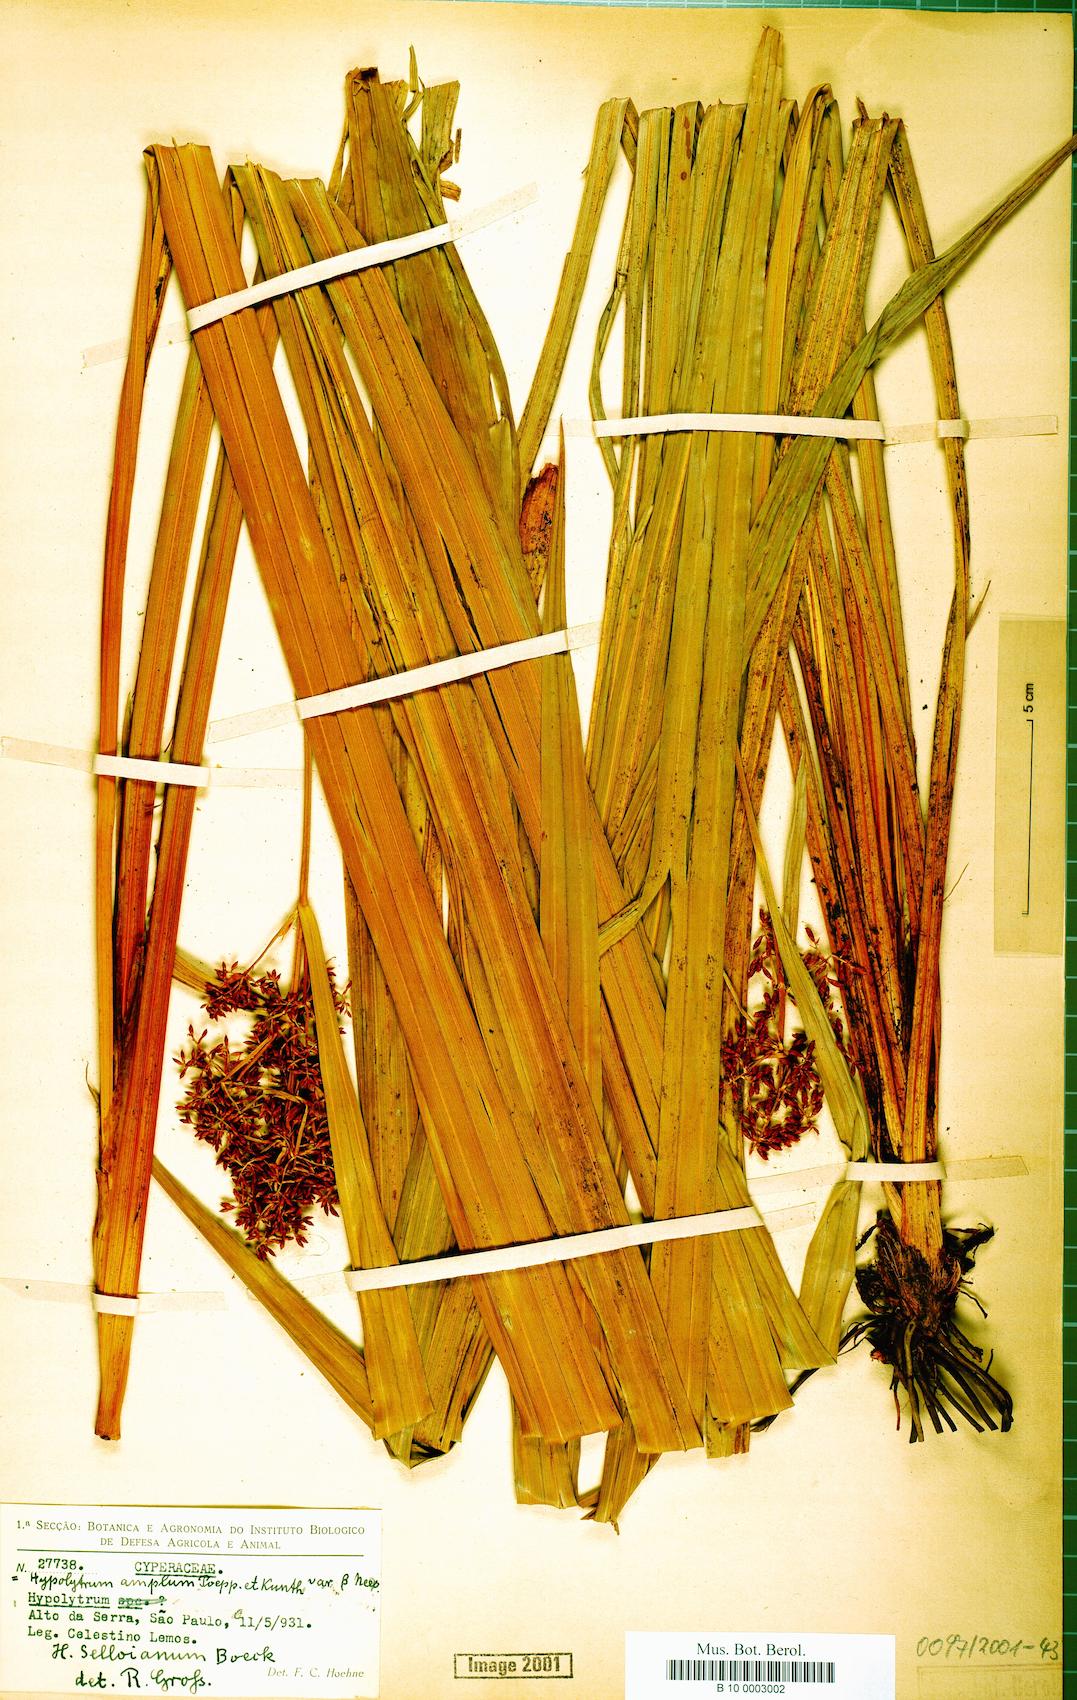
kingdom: Plantae
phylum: Tracheophyta
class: Liliopsida
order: Poales
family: Cyperaceae
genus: Hypolytrum
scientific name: Hypolytrum schraderianum
